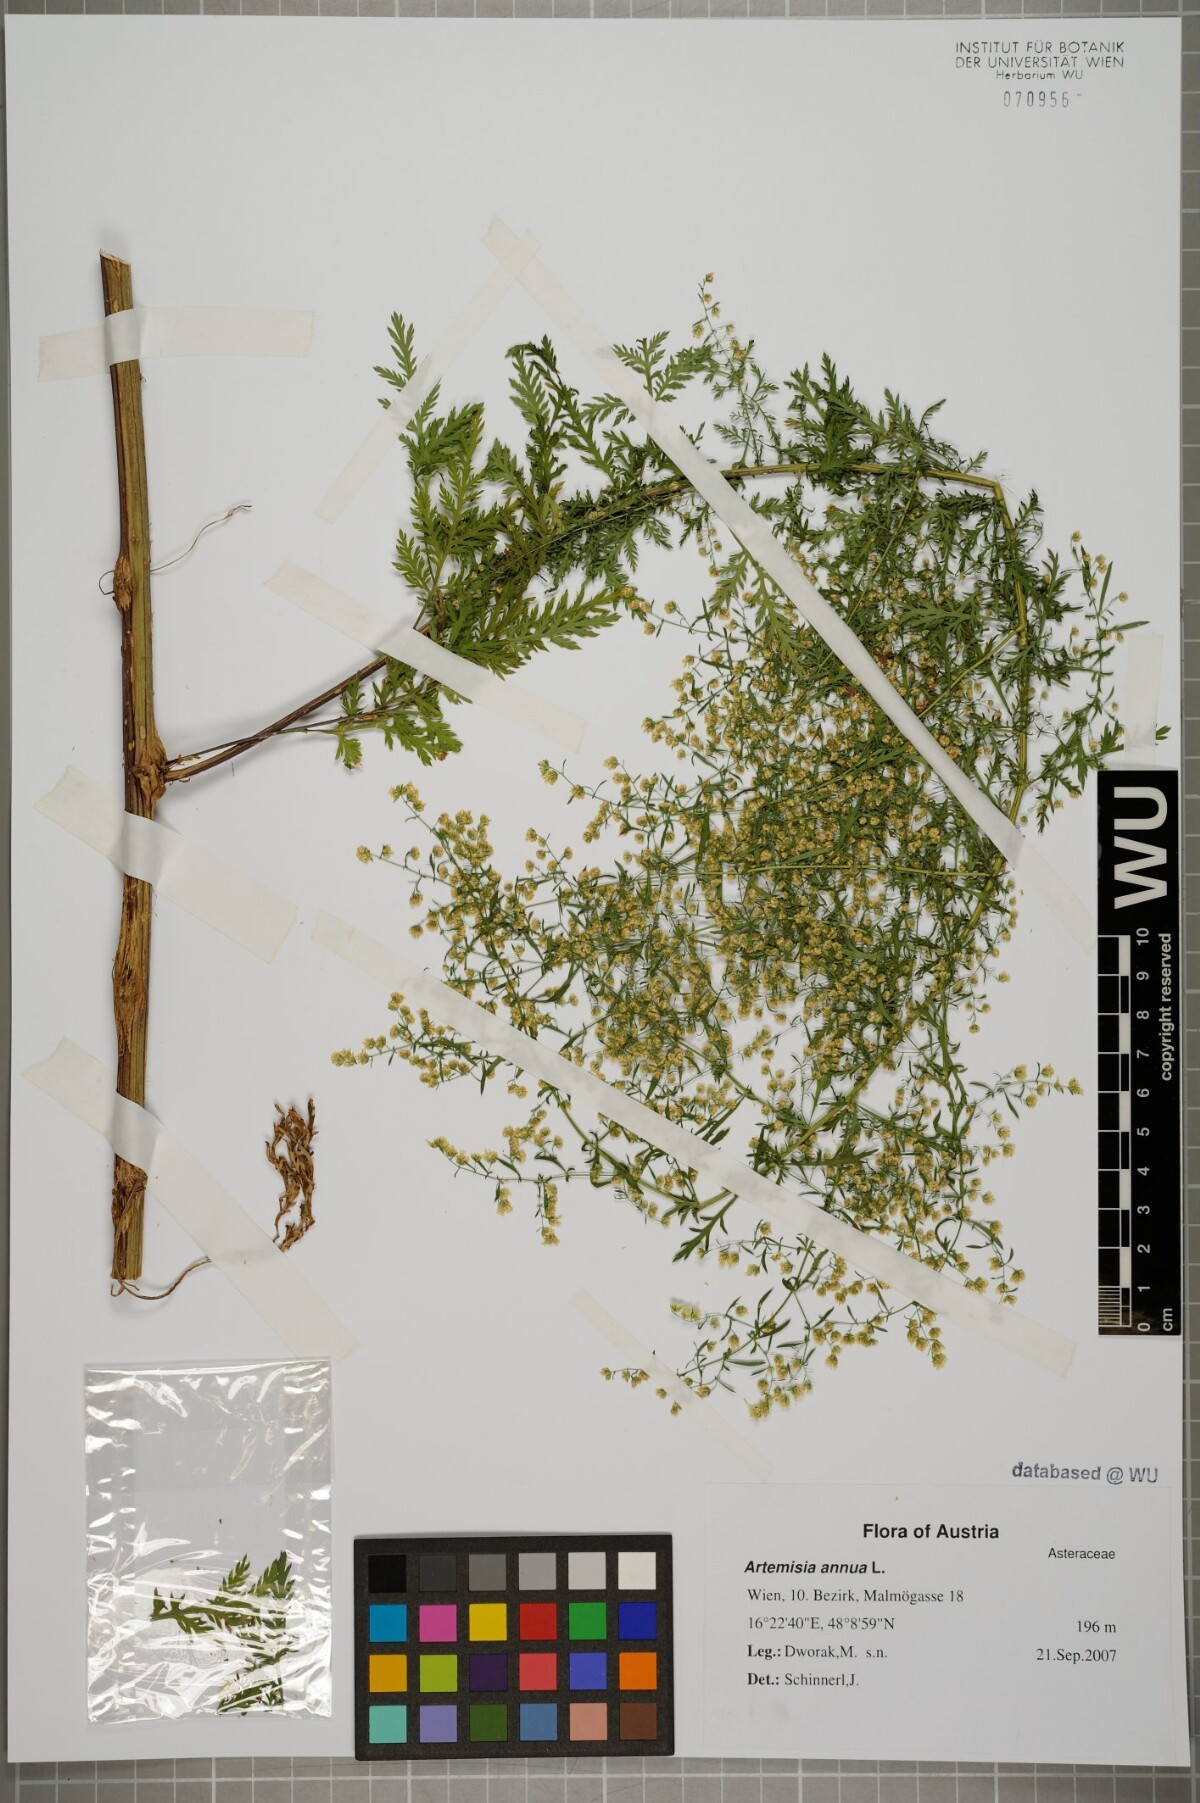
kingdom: Plantae
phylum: Tracheophyta
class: Magnoliopsida
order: Asterales
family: Asteraceae
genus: Artemisia
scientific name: Artemisia annua
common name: Sweet sagewort
